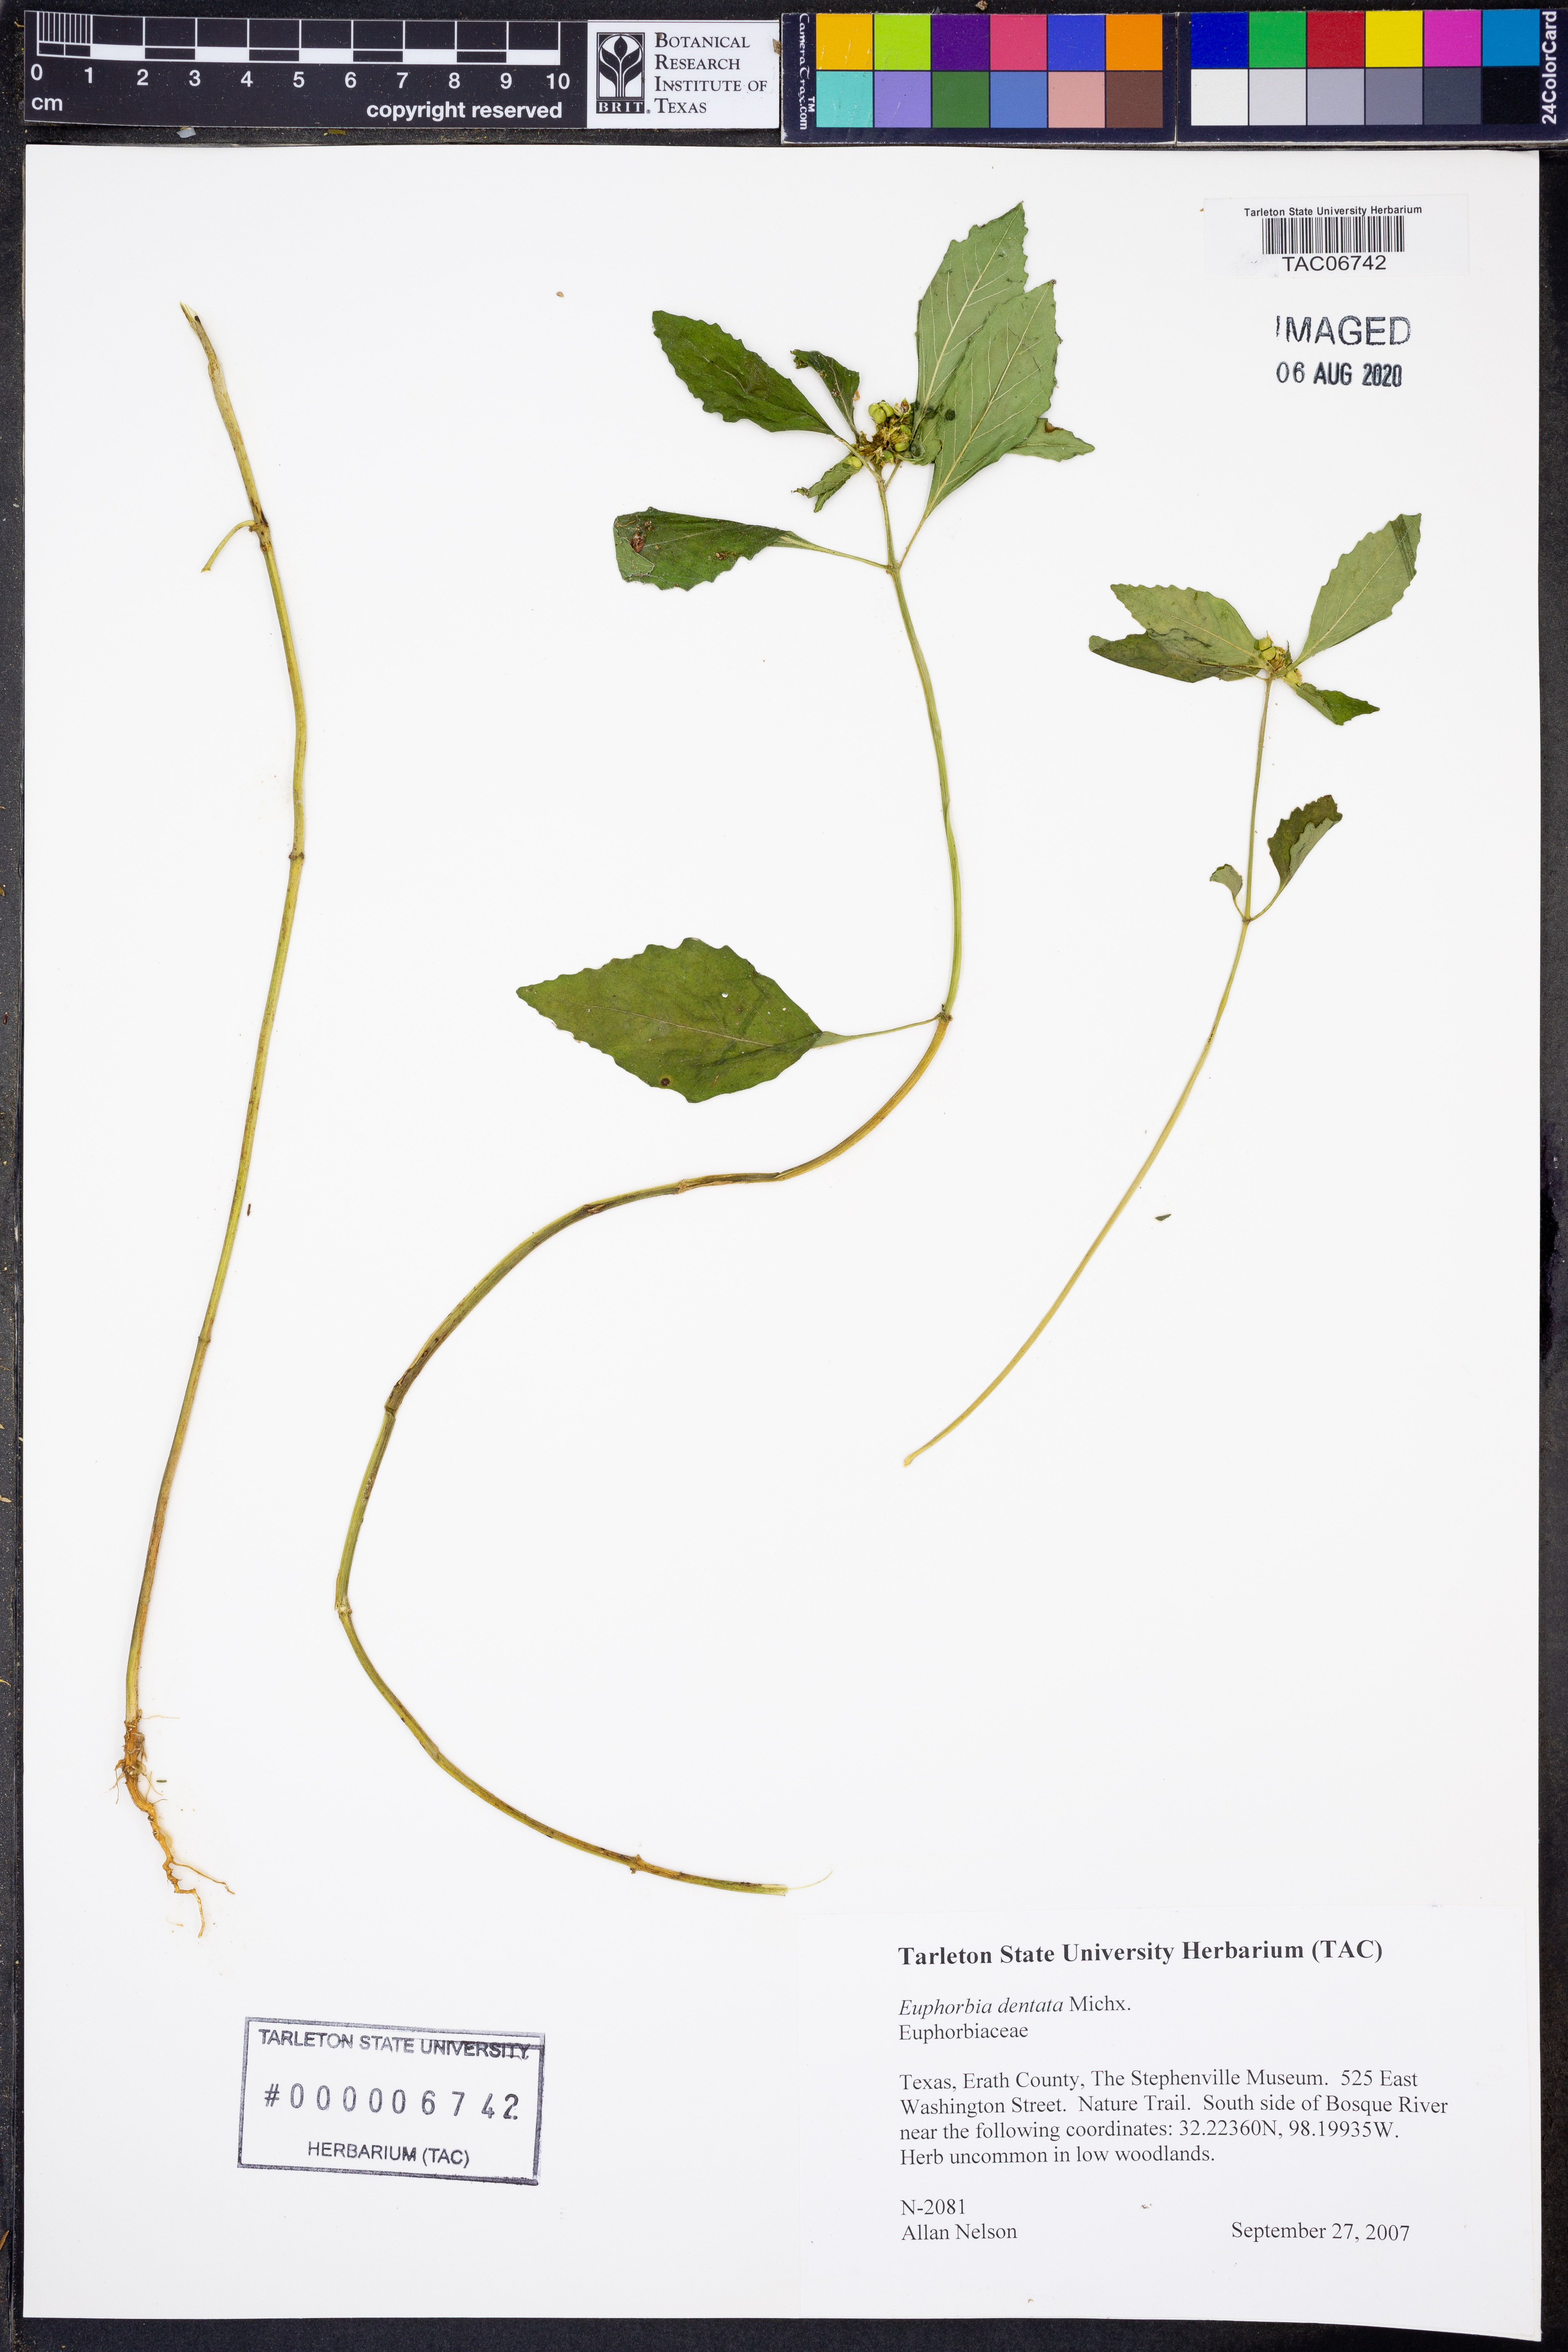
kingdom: Plantae
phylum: Tracheophyta
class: Magnoliopsida
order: Malpighiales
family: Euphorbiaceae
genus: Euphorbia
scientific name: Euphorbia dentata
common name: Dentate spurge
